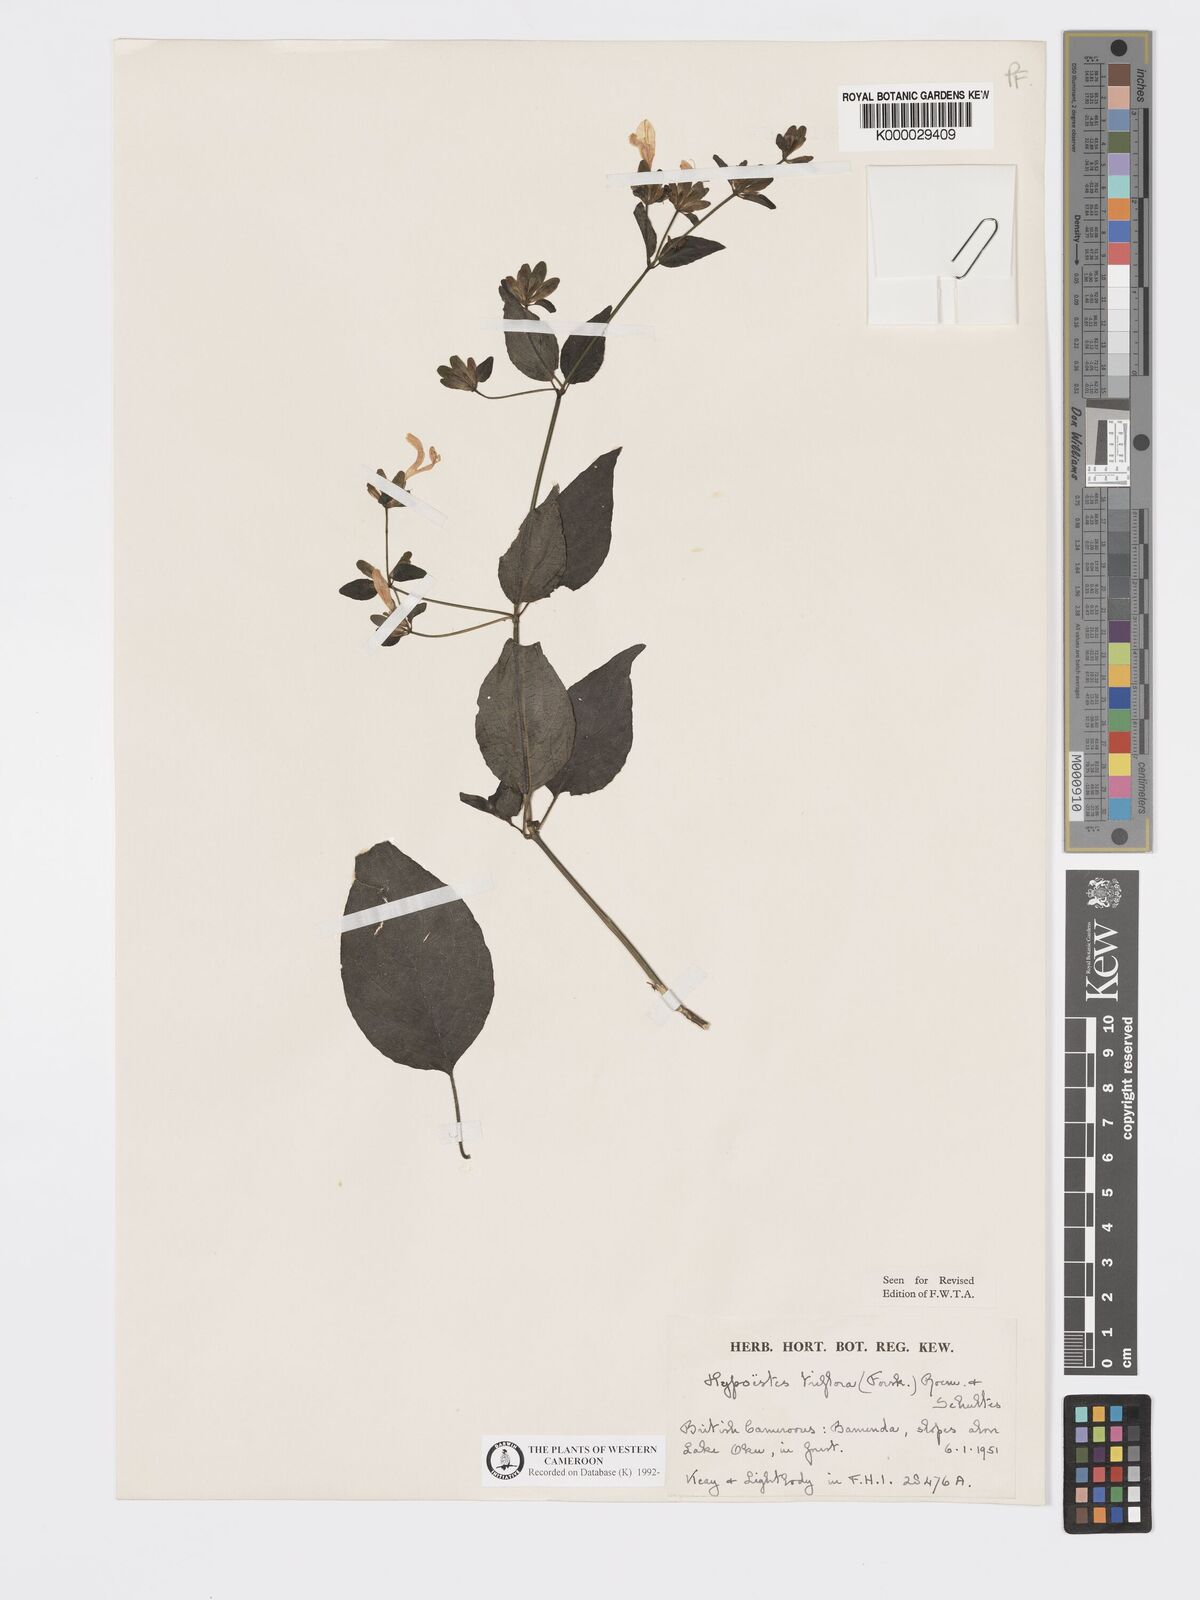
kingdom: Plantae
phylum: Tracheophyta
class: Magnoliopsida
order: Lamiales
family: Acanthaceae
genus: Hypoestes
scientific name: Hypoestes triflora
